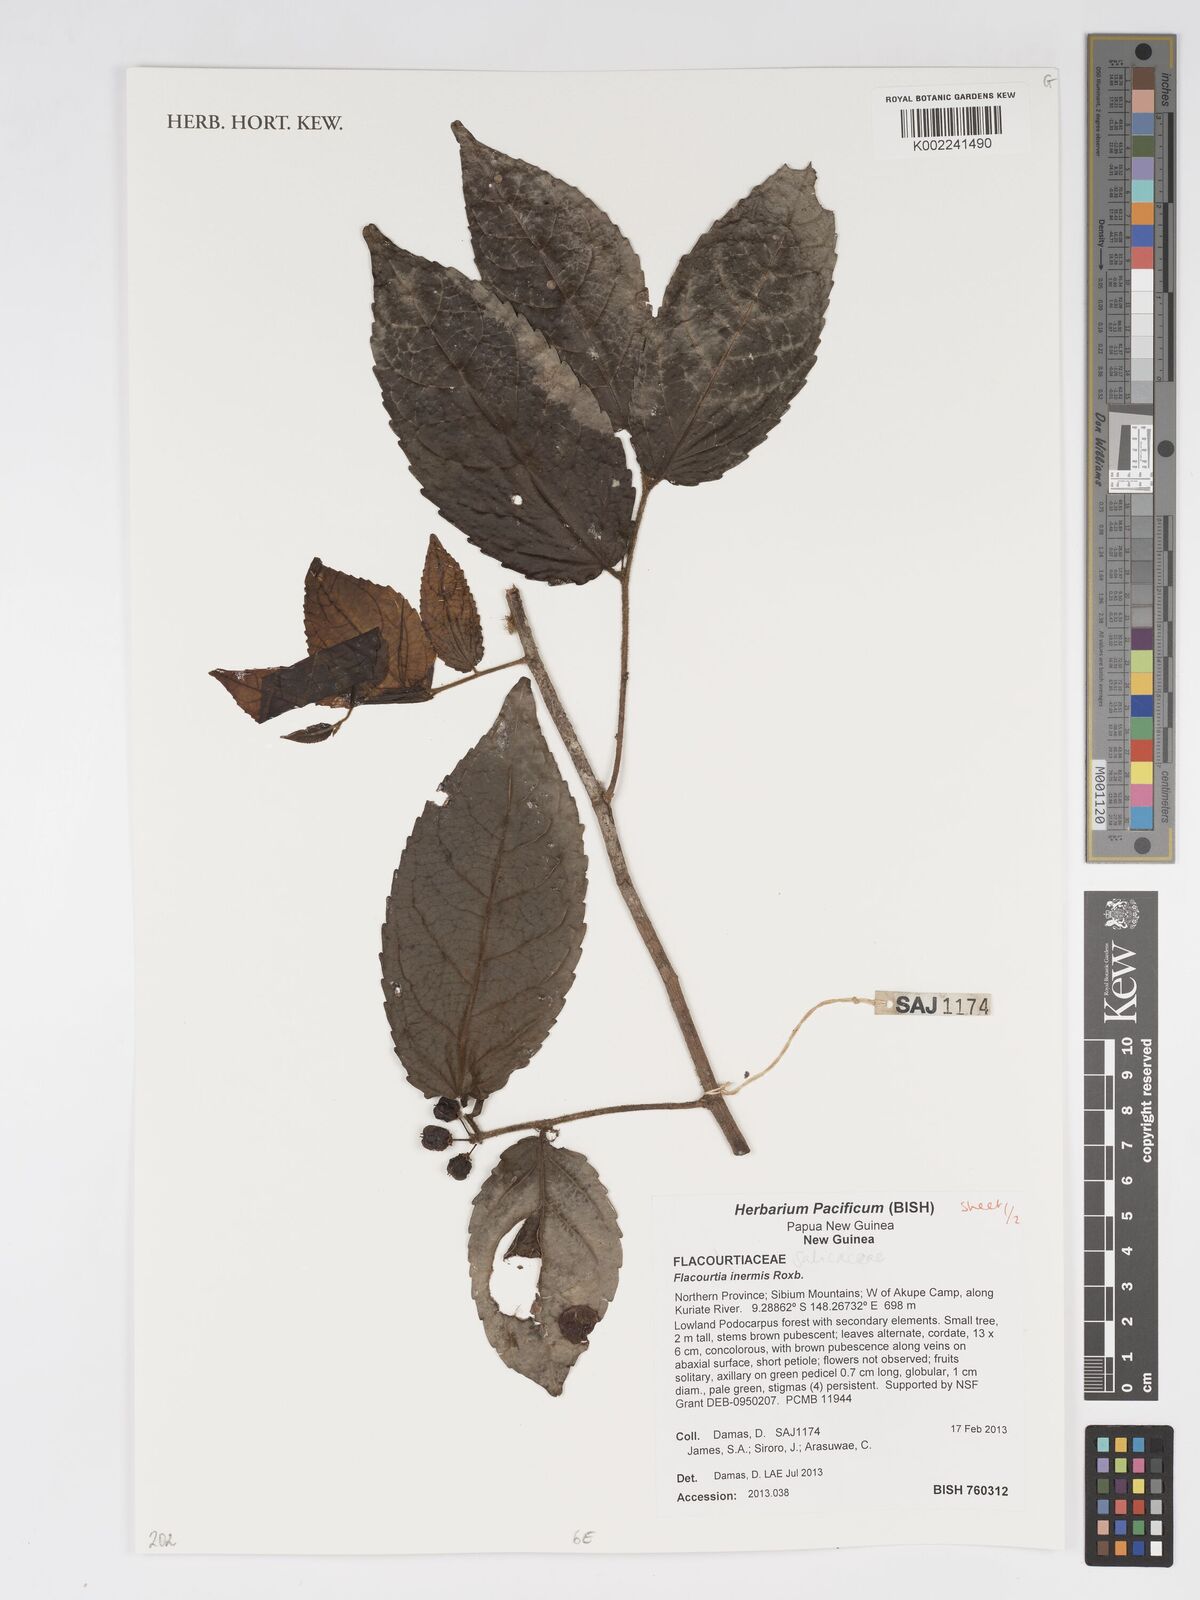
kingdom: Plantae
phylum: Tracheophyta
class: Magnoliopsida
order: Malpighiales
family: Salicaceae
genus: Flacourtia
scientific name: Flacourtia inermis
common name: Plum-of-martinique
